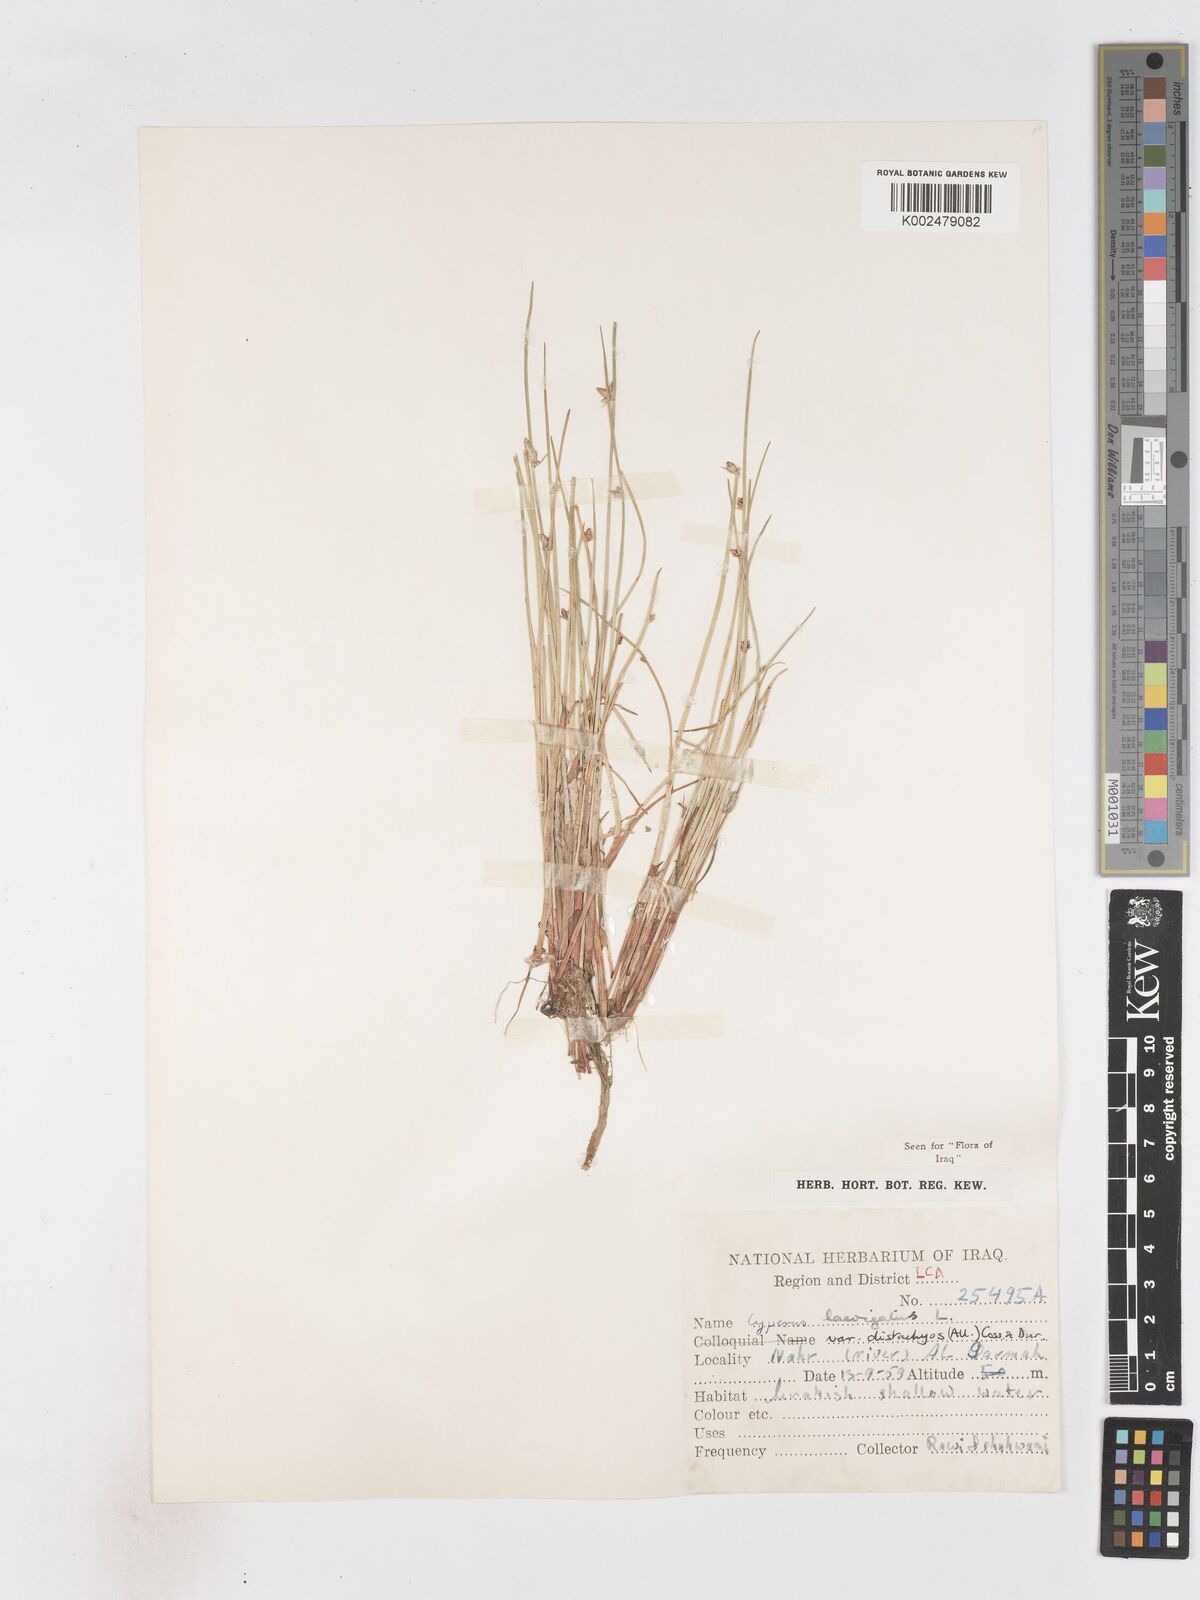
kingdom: Plantae
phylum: Tracheophyta
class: Liliopsida
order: Poales
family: Cyperaceae
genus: Cyperus
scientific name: Cyperus laevigatus
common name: Smooth flat sedge
